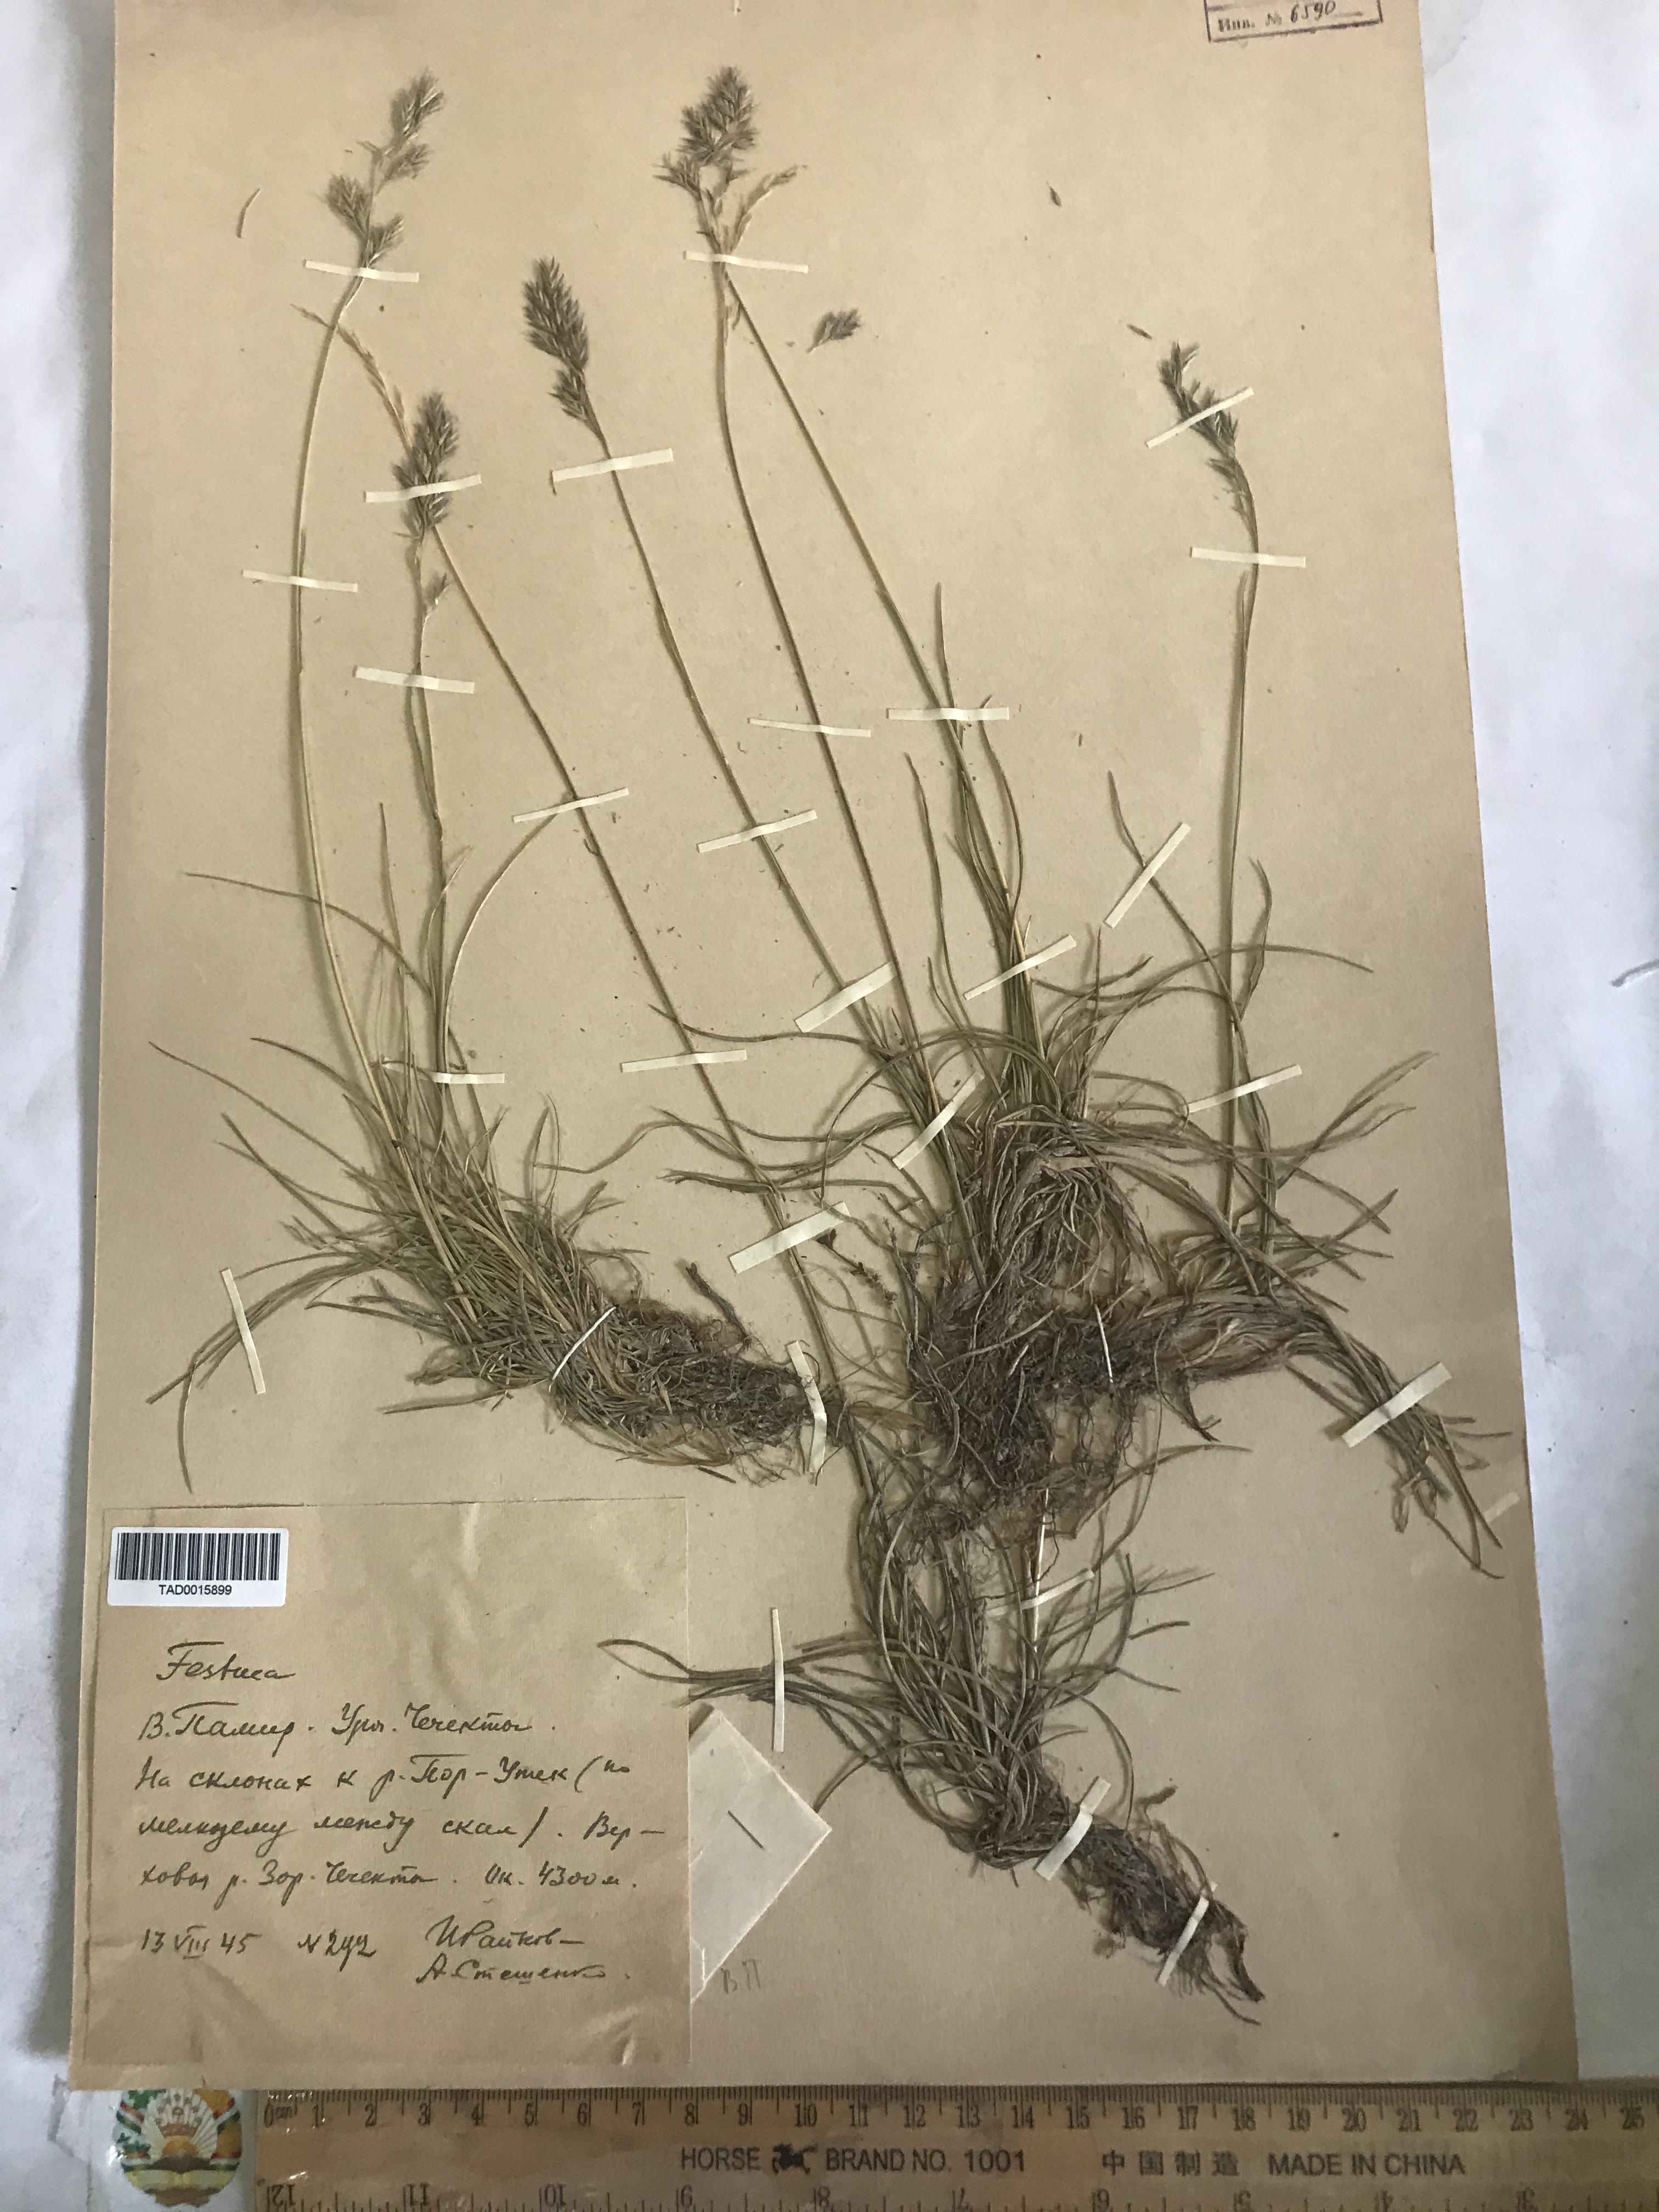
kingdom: Plantae
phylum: Tracheophyta
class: Liliopsida
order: Poales
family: Poaceae
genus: Festuca
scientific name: Festuca
